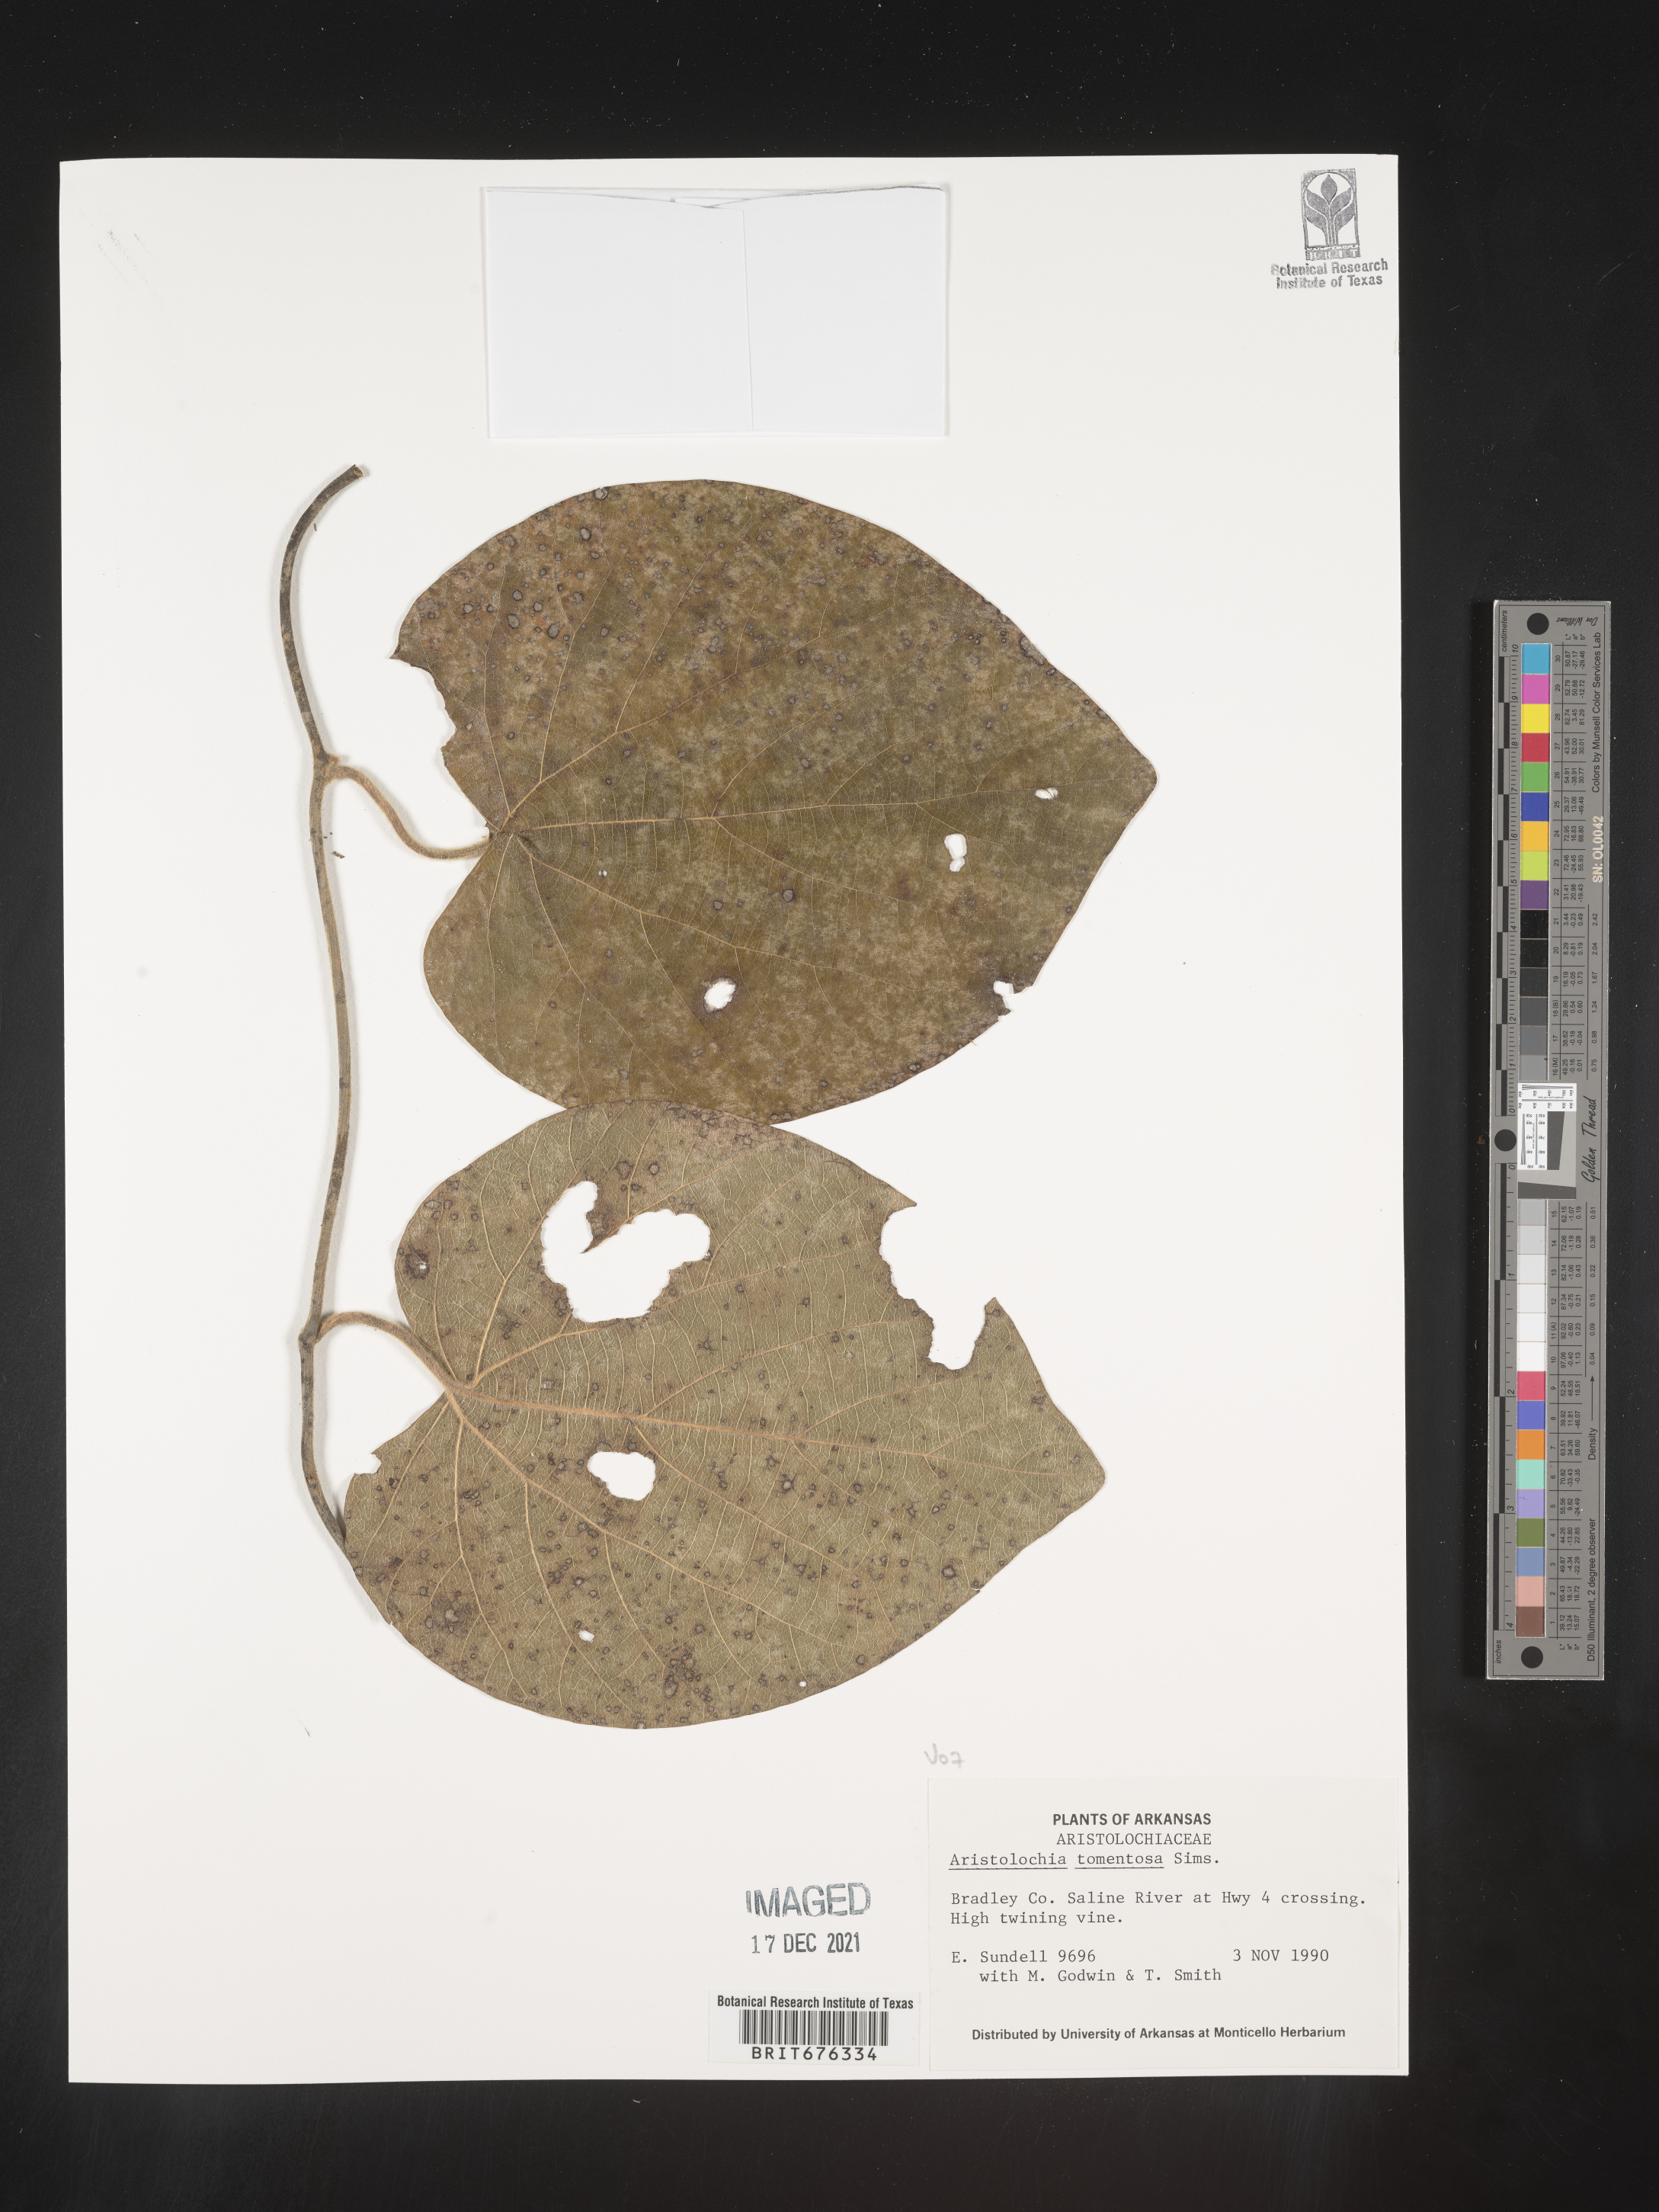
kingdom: Plantae
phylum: Tracheophyta
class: Magnoliopsida
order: Piperales
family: Aristolochiaceae
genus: Isotrema
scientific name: Isotrema tomentosum
